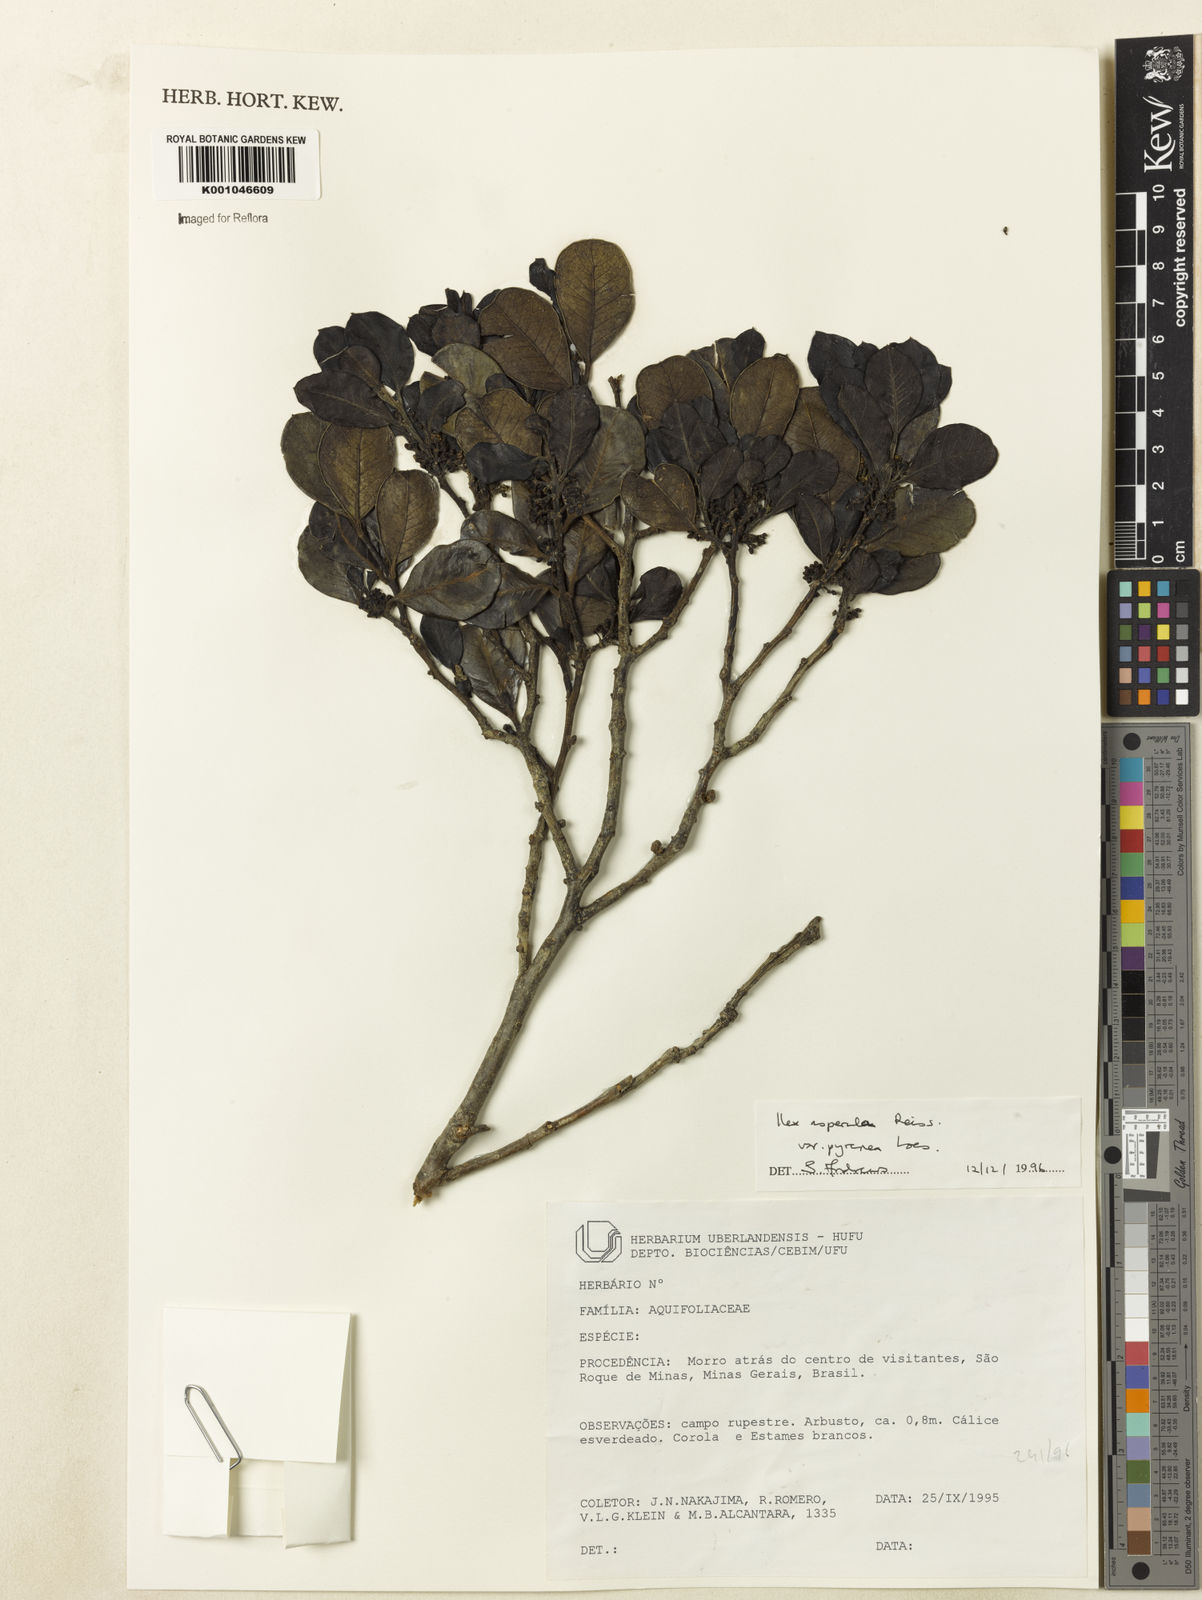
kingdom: Plantae
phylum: Tracheophyta
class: Magnoliopsida
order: Aquifoliales
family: Aquifoliaceae
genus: Ilex
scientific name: Ilex asperula
